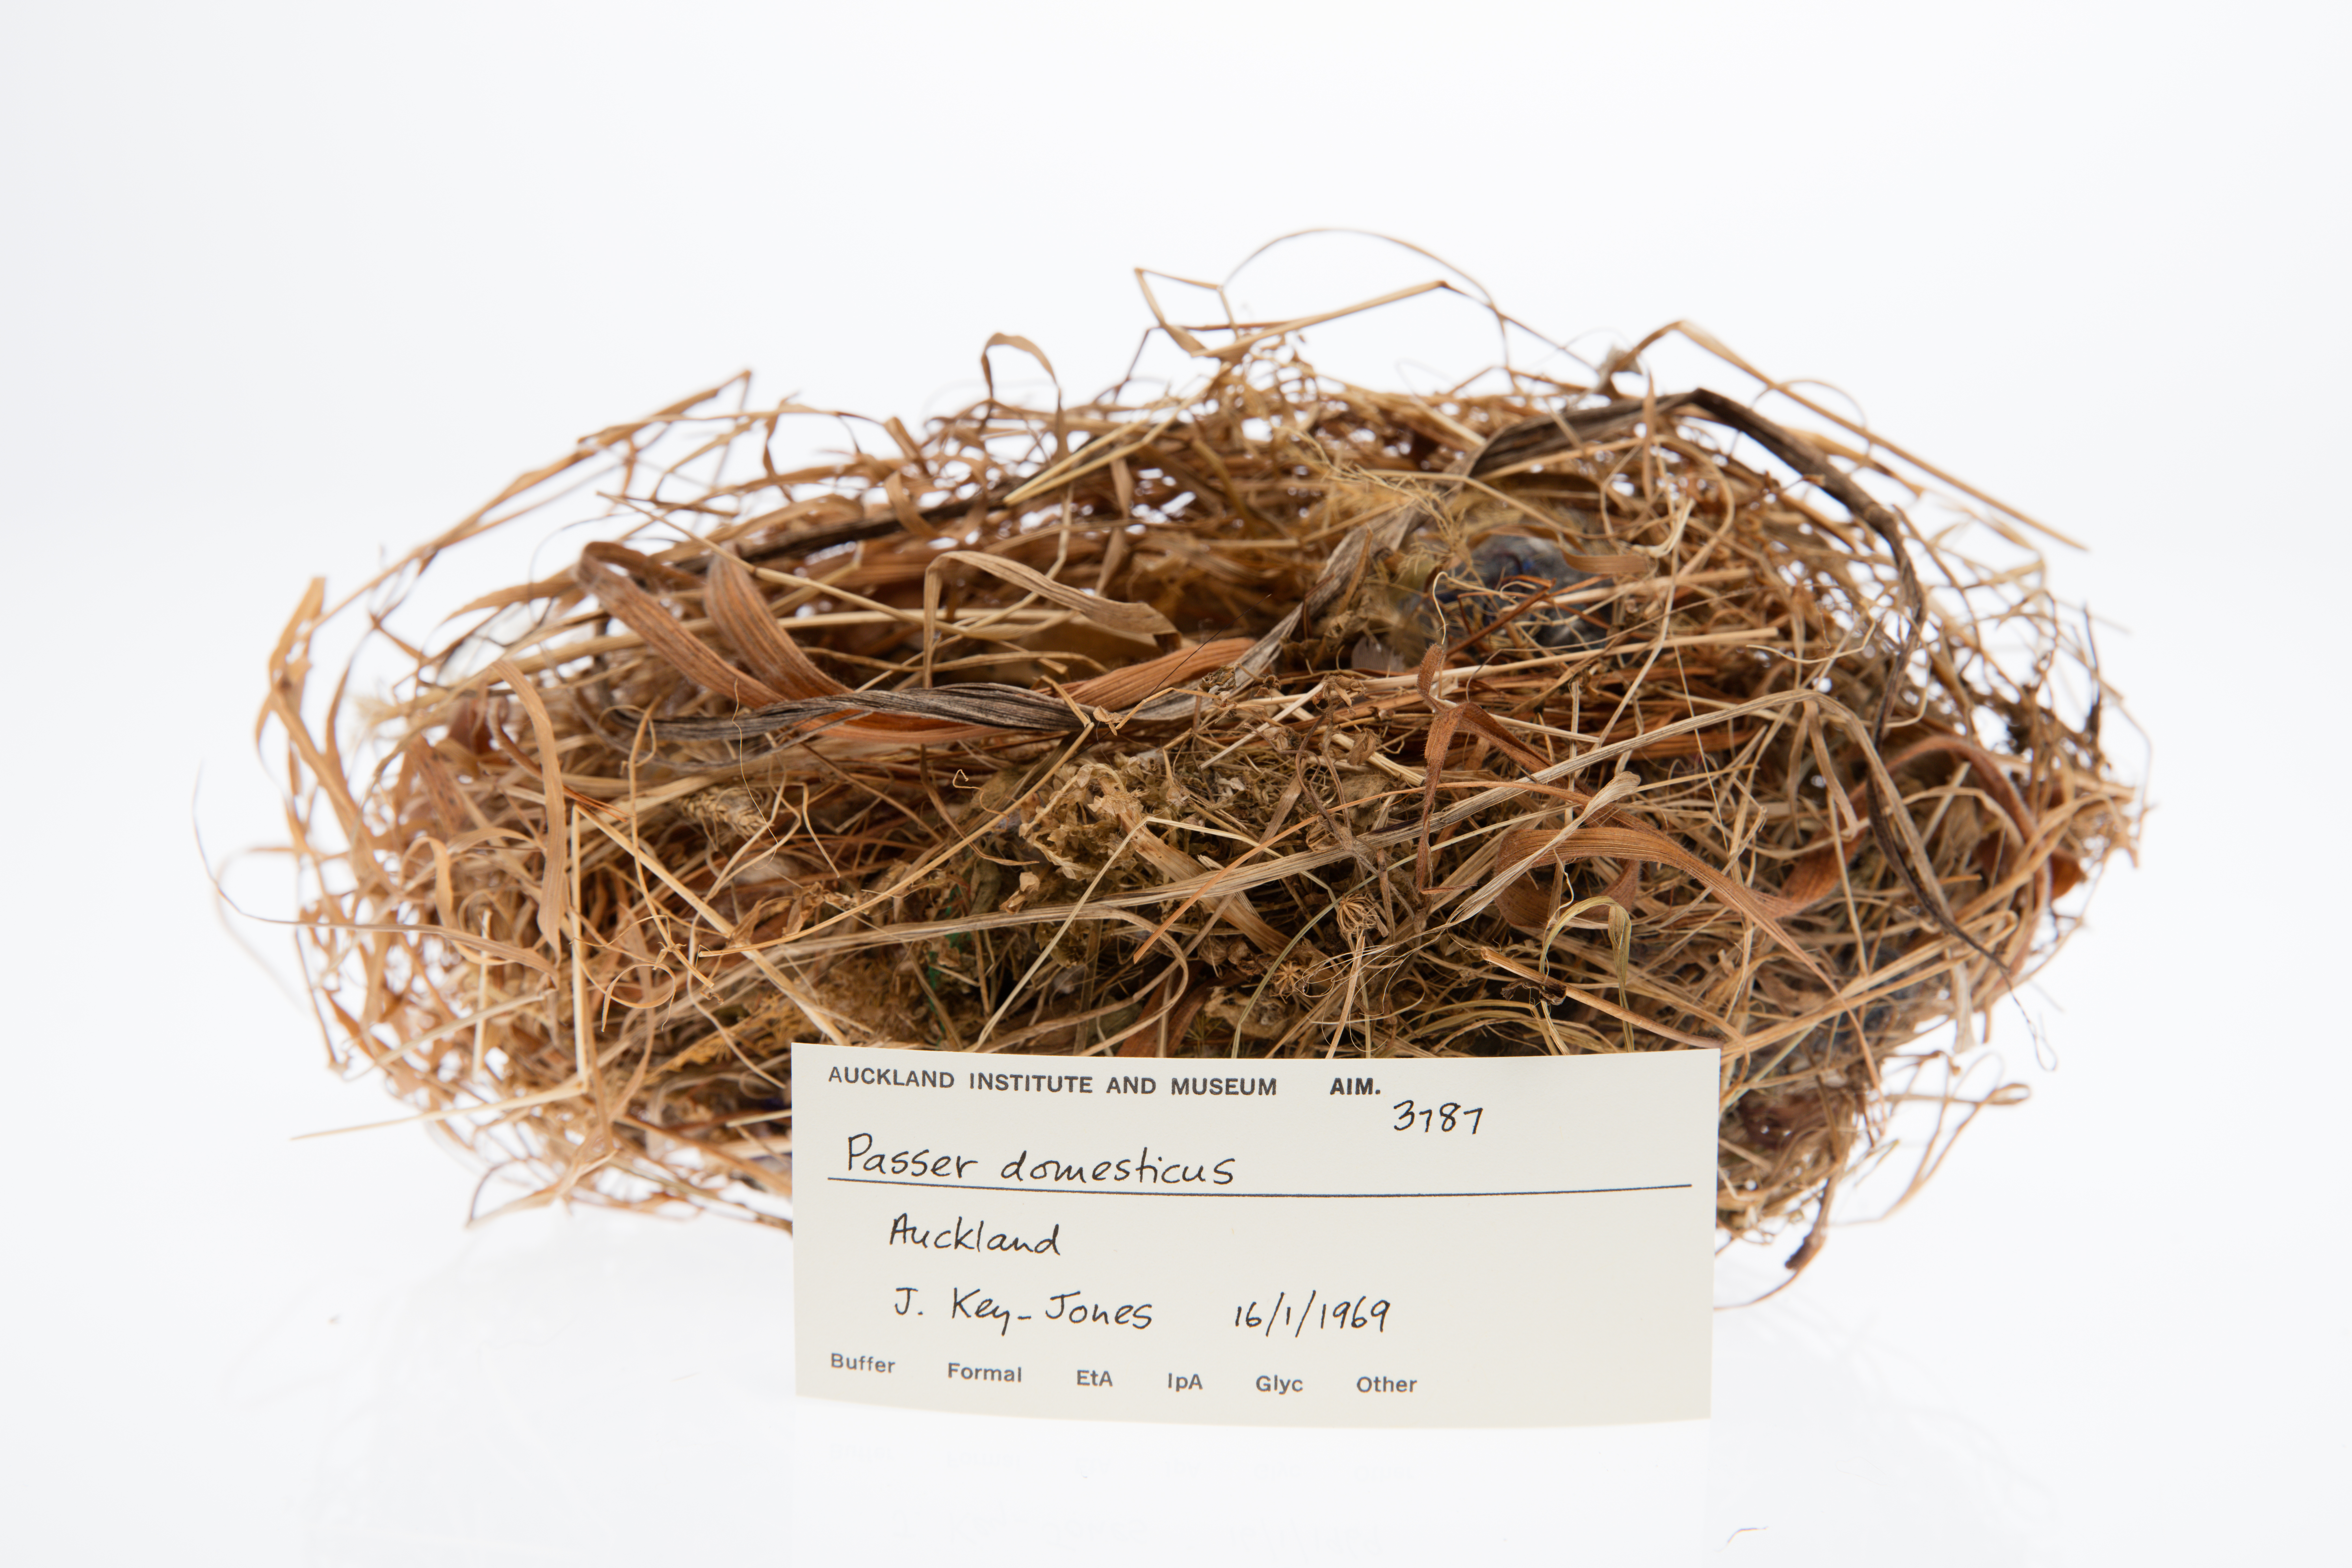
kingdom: Animalia
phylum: Chordata
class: Aves
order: Passeriformes
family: Passeridae
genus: Passer
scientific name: Passer domesticus
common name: House sparrow
